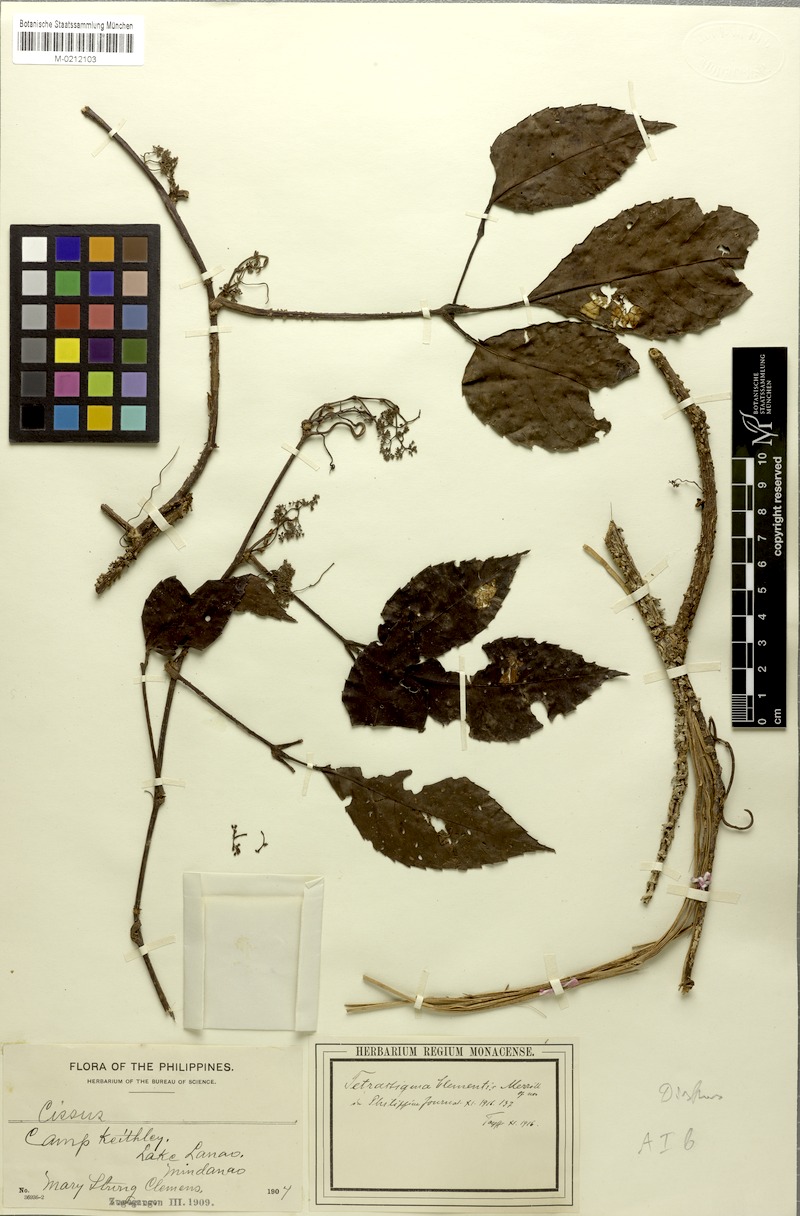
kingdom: Plantae
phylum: Tracheophyta
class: Magnoliopsida
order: Vitales
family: Vitaceae
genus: Tetrastigma
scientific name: Tetrastigma clementis
